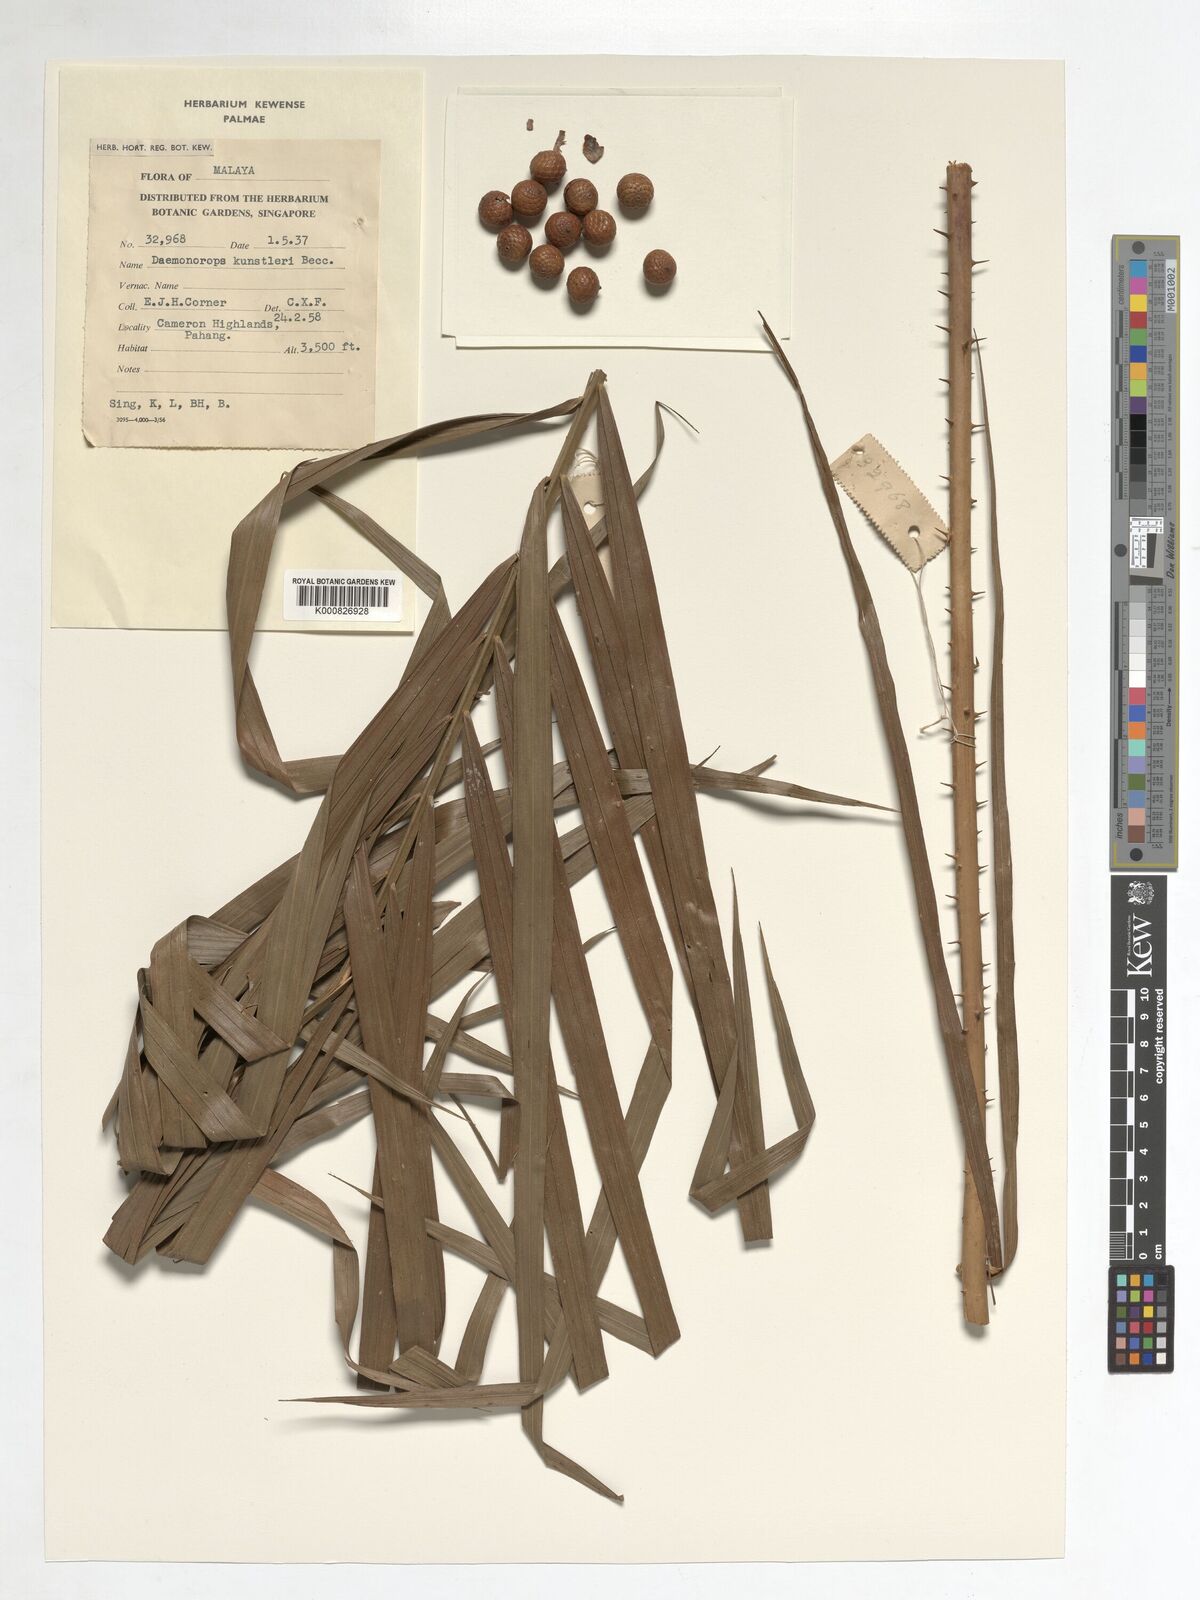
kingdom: Plantae
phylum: Tracheophyta
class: Liliopsida
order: Arecales
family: Arecaceae
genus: Calamus
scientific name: Calamus kunstleri
